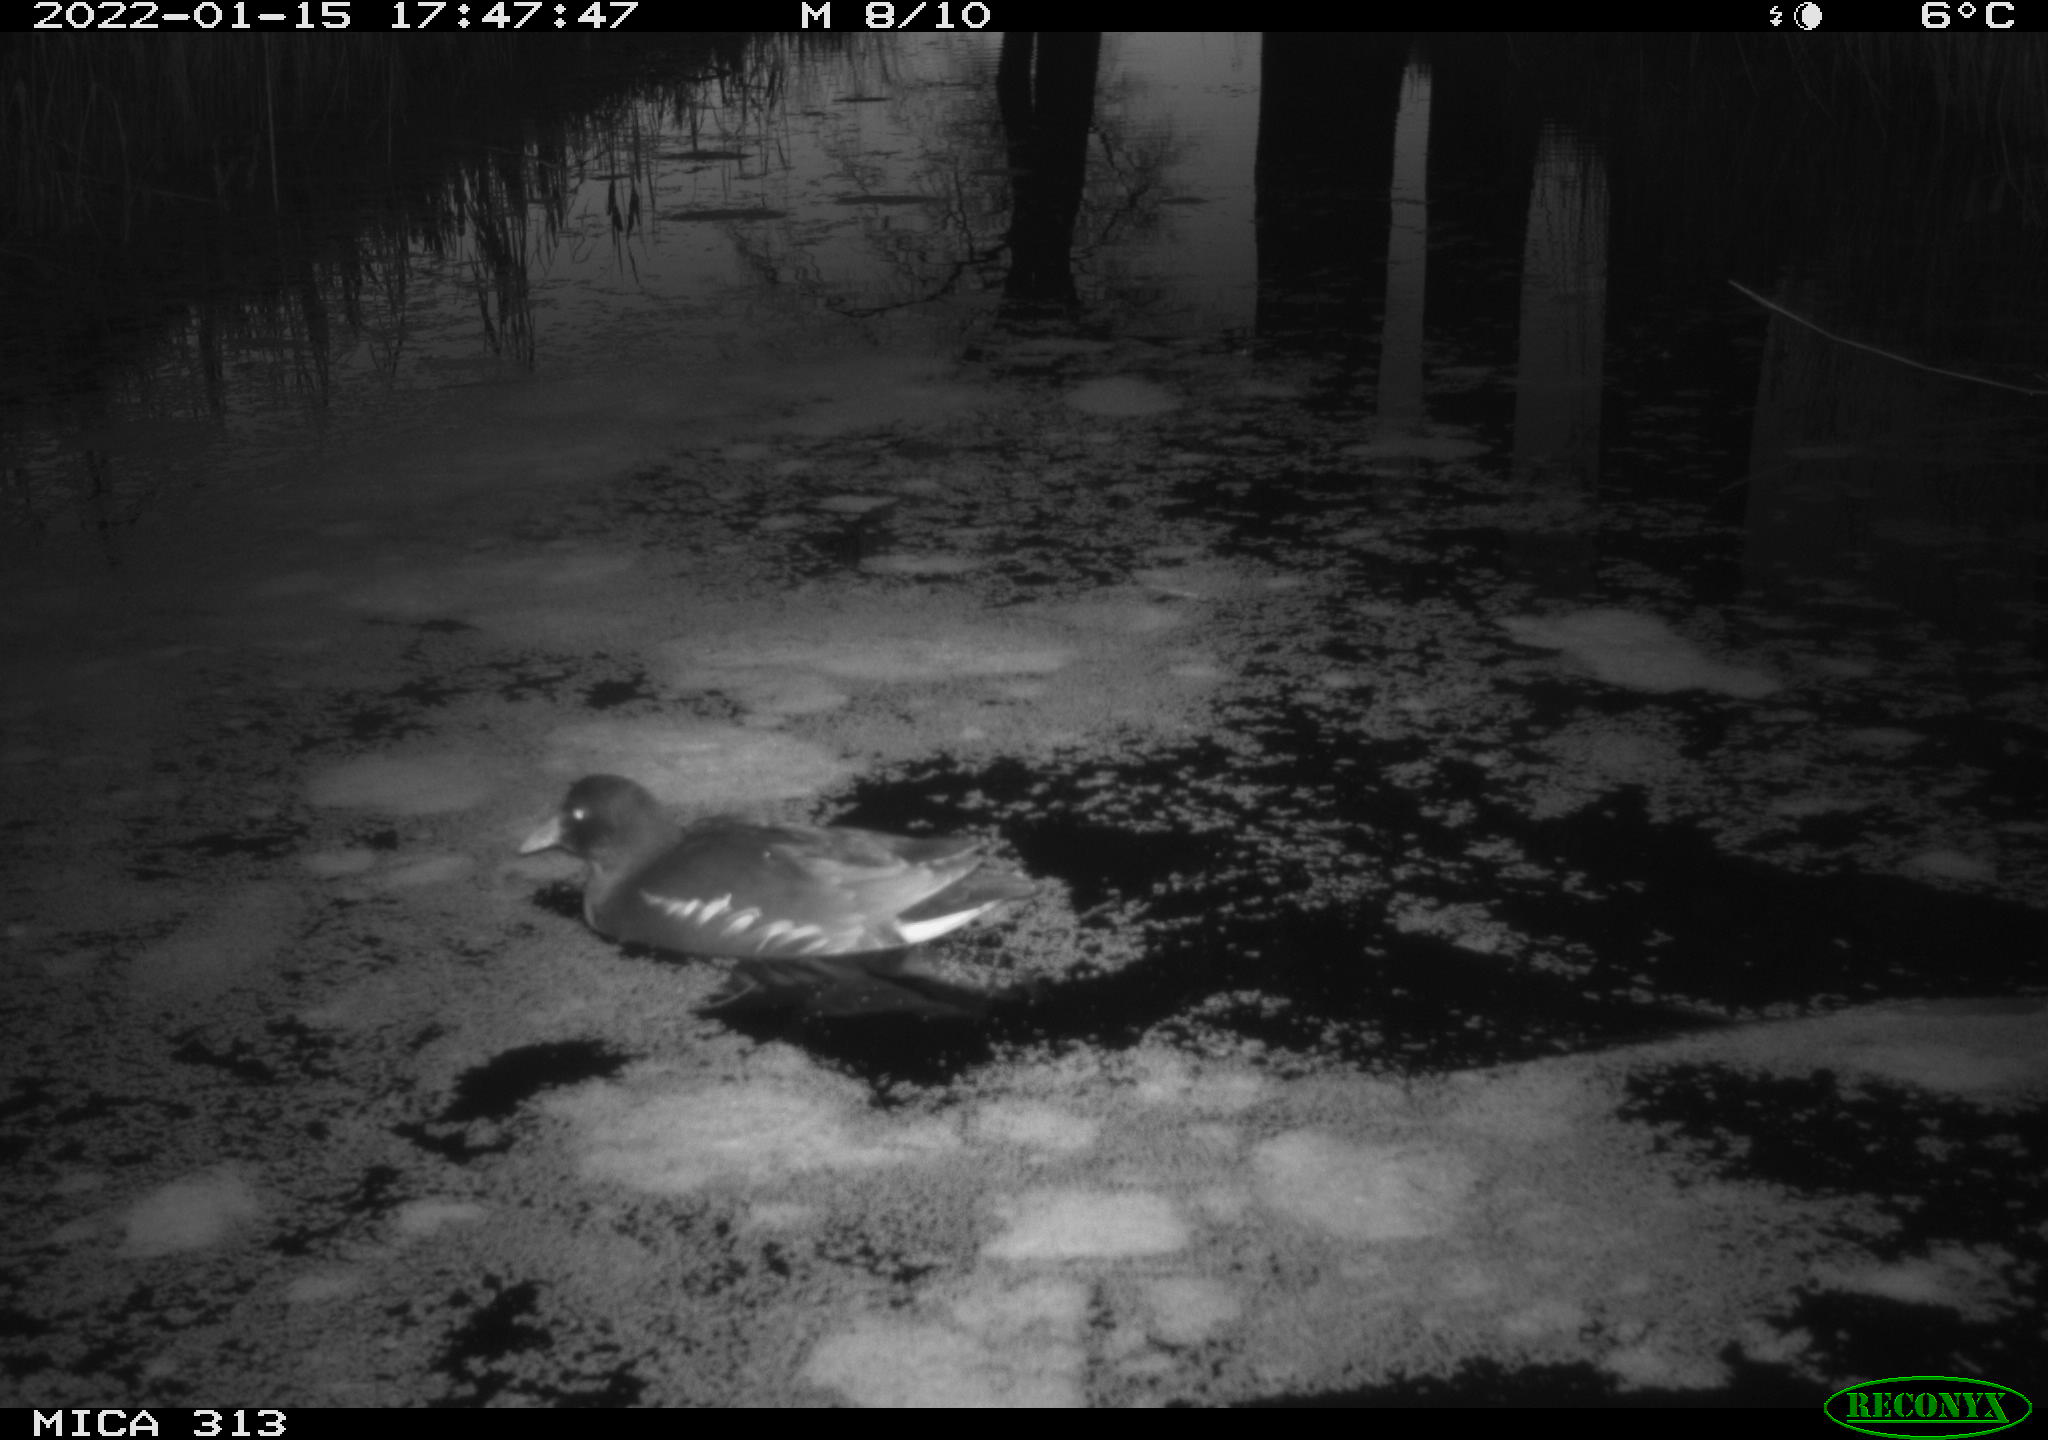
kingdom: Animalia
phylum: Chordata
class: Aves
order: Anseriformes
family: Anatidae
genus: Anas
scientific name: Anas
